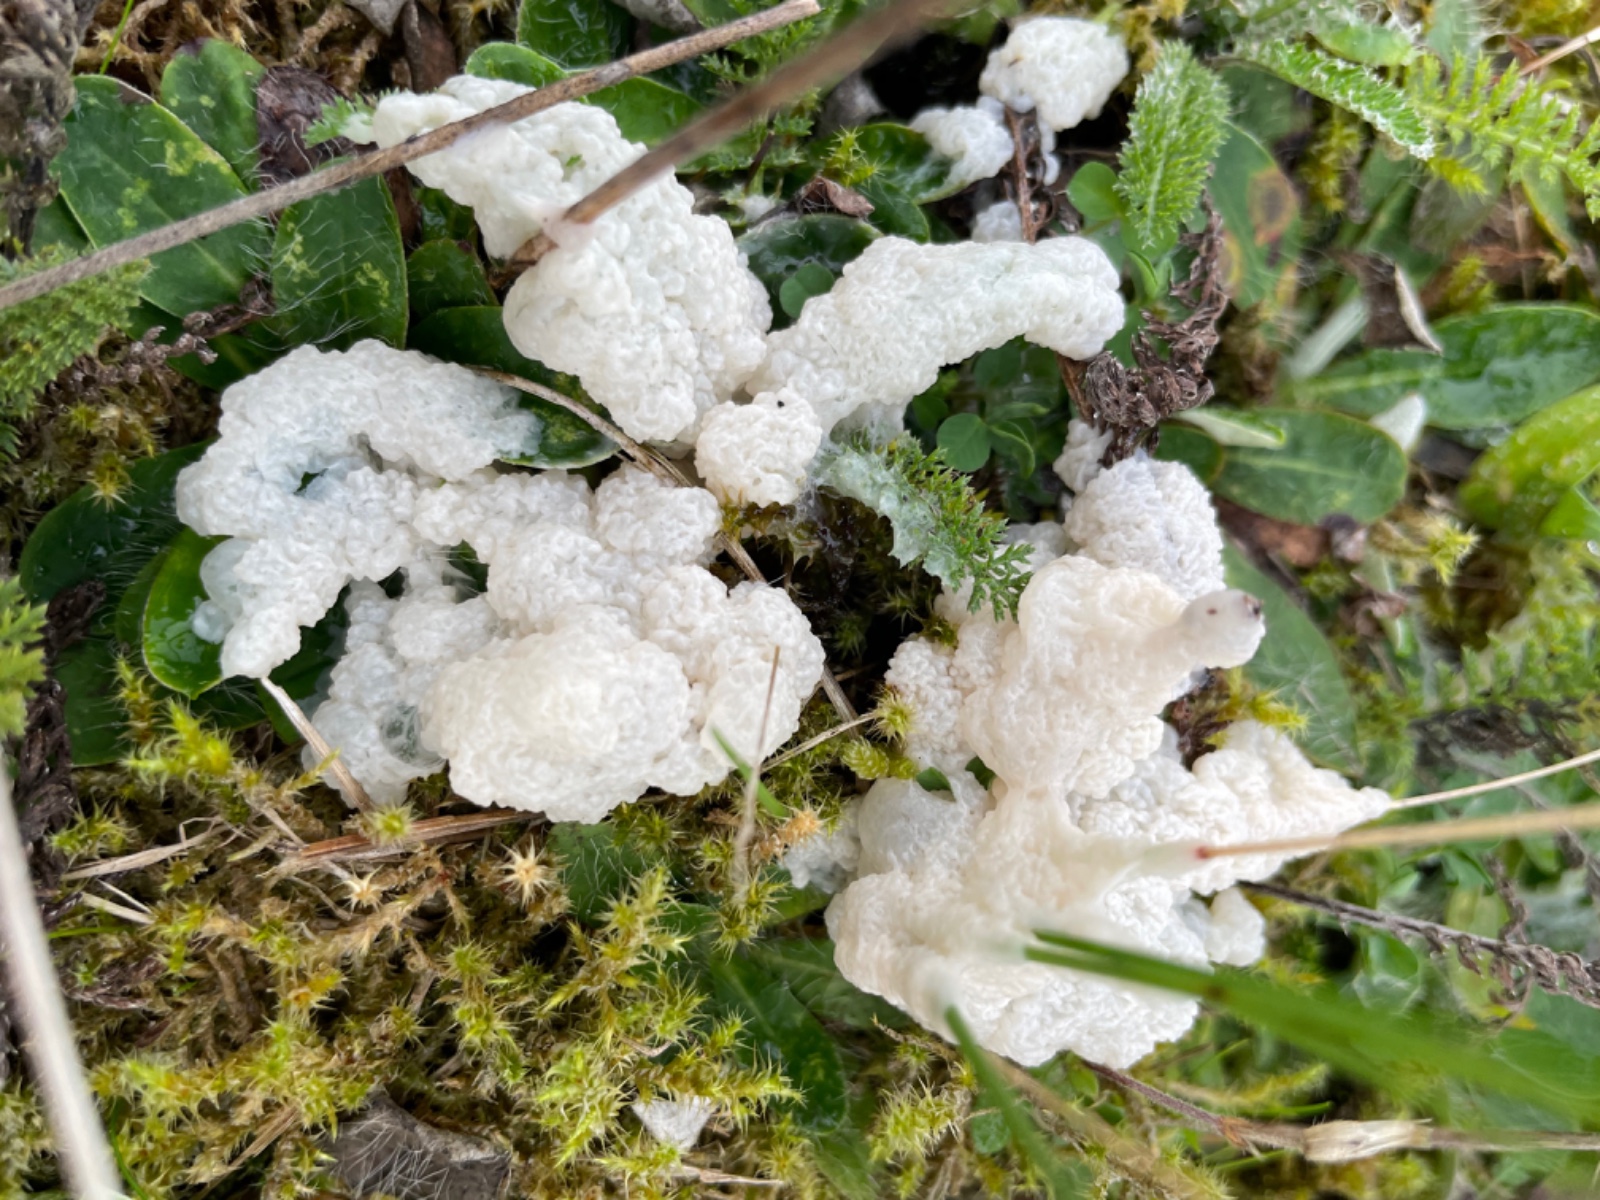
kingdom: Protozoa
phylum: Mycetozoa
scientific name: Mycetozoa
